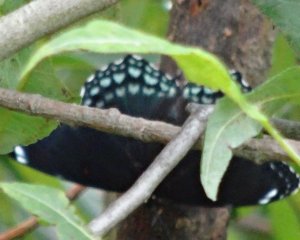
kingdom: Animalia
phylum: Arthropoda
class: Insecta
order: Lepidoptera
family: Nymphalidae
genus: Limenitis
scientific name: Limenitis astyanax
